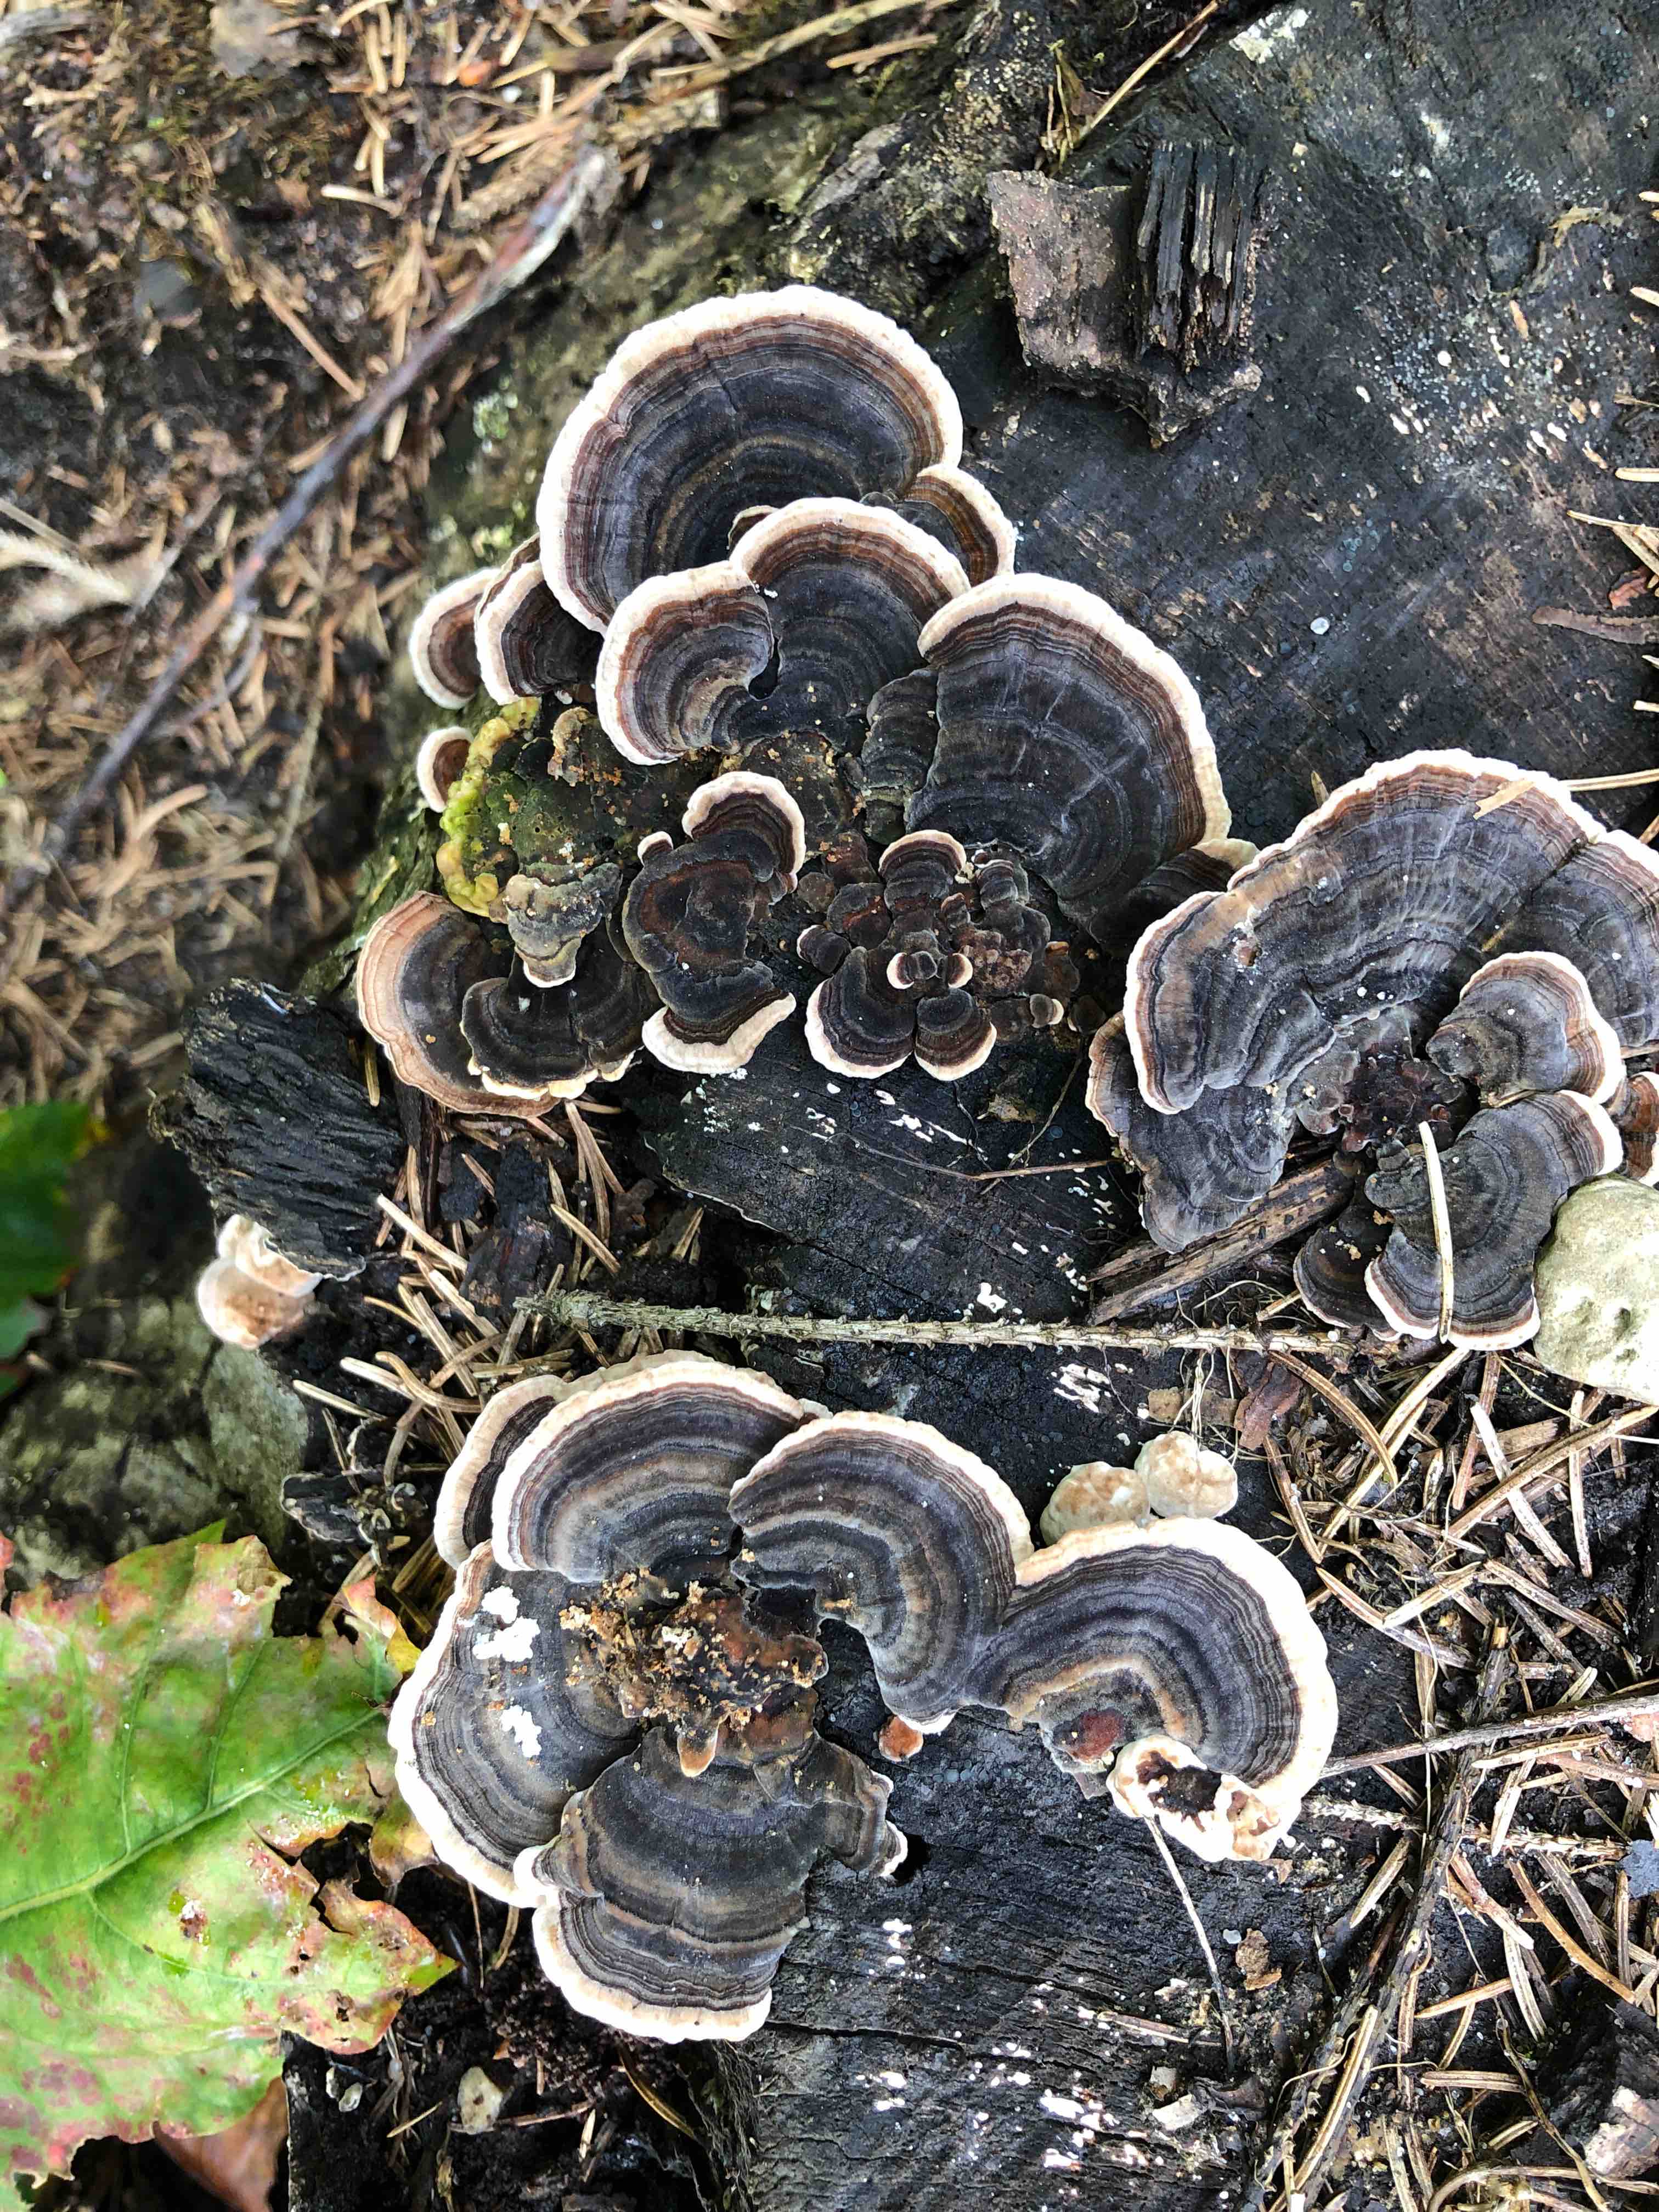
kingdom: Fungi
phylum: Basidiomycota
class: Agaricomycetes
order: Polyporales
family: Polyporaceae
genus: Trametes
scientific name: Trametes versicolor
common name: broget læderporesvamp
